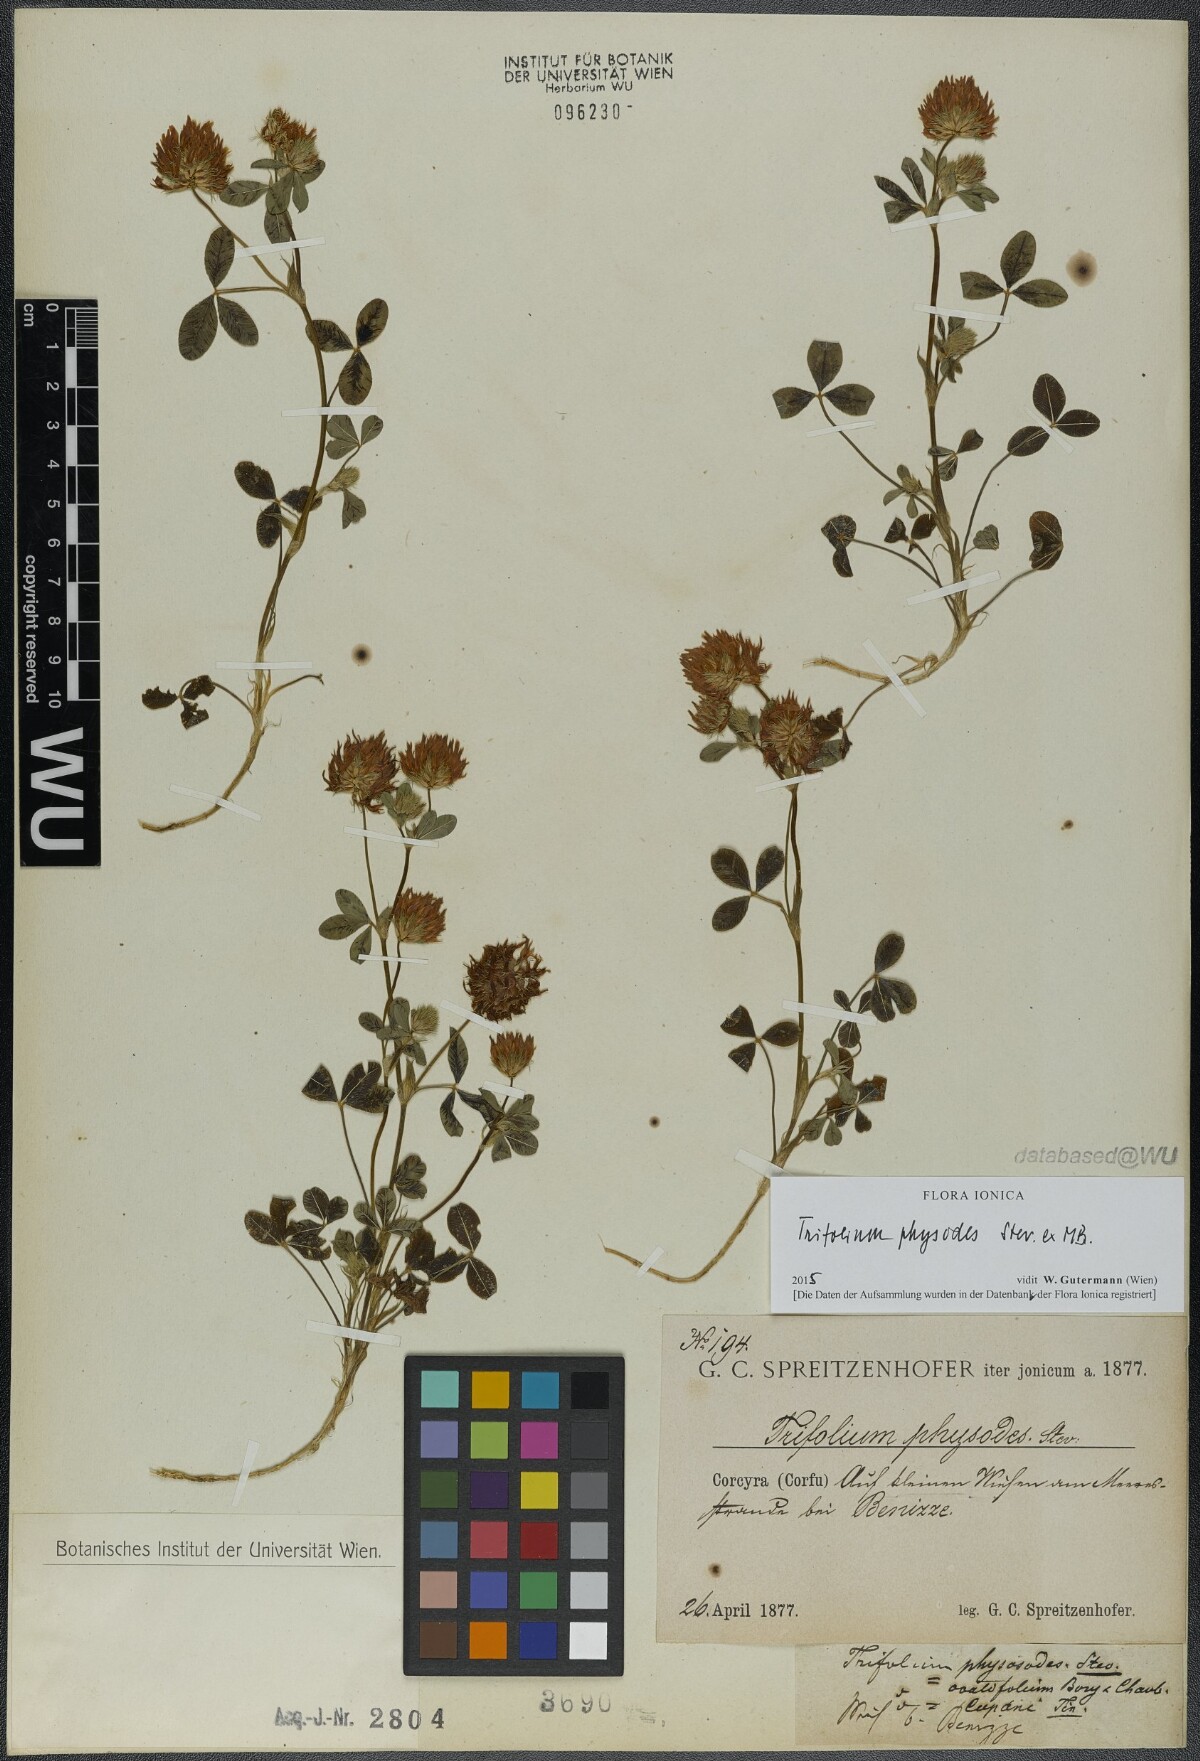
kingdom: Plantae
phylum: Tracheophyta
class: Magnoliopsida
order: Fabales
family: Fabaceae
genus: Trifolium
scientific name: Trifolium physodes
